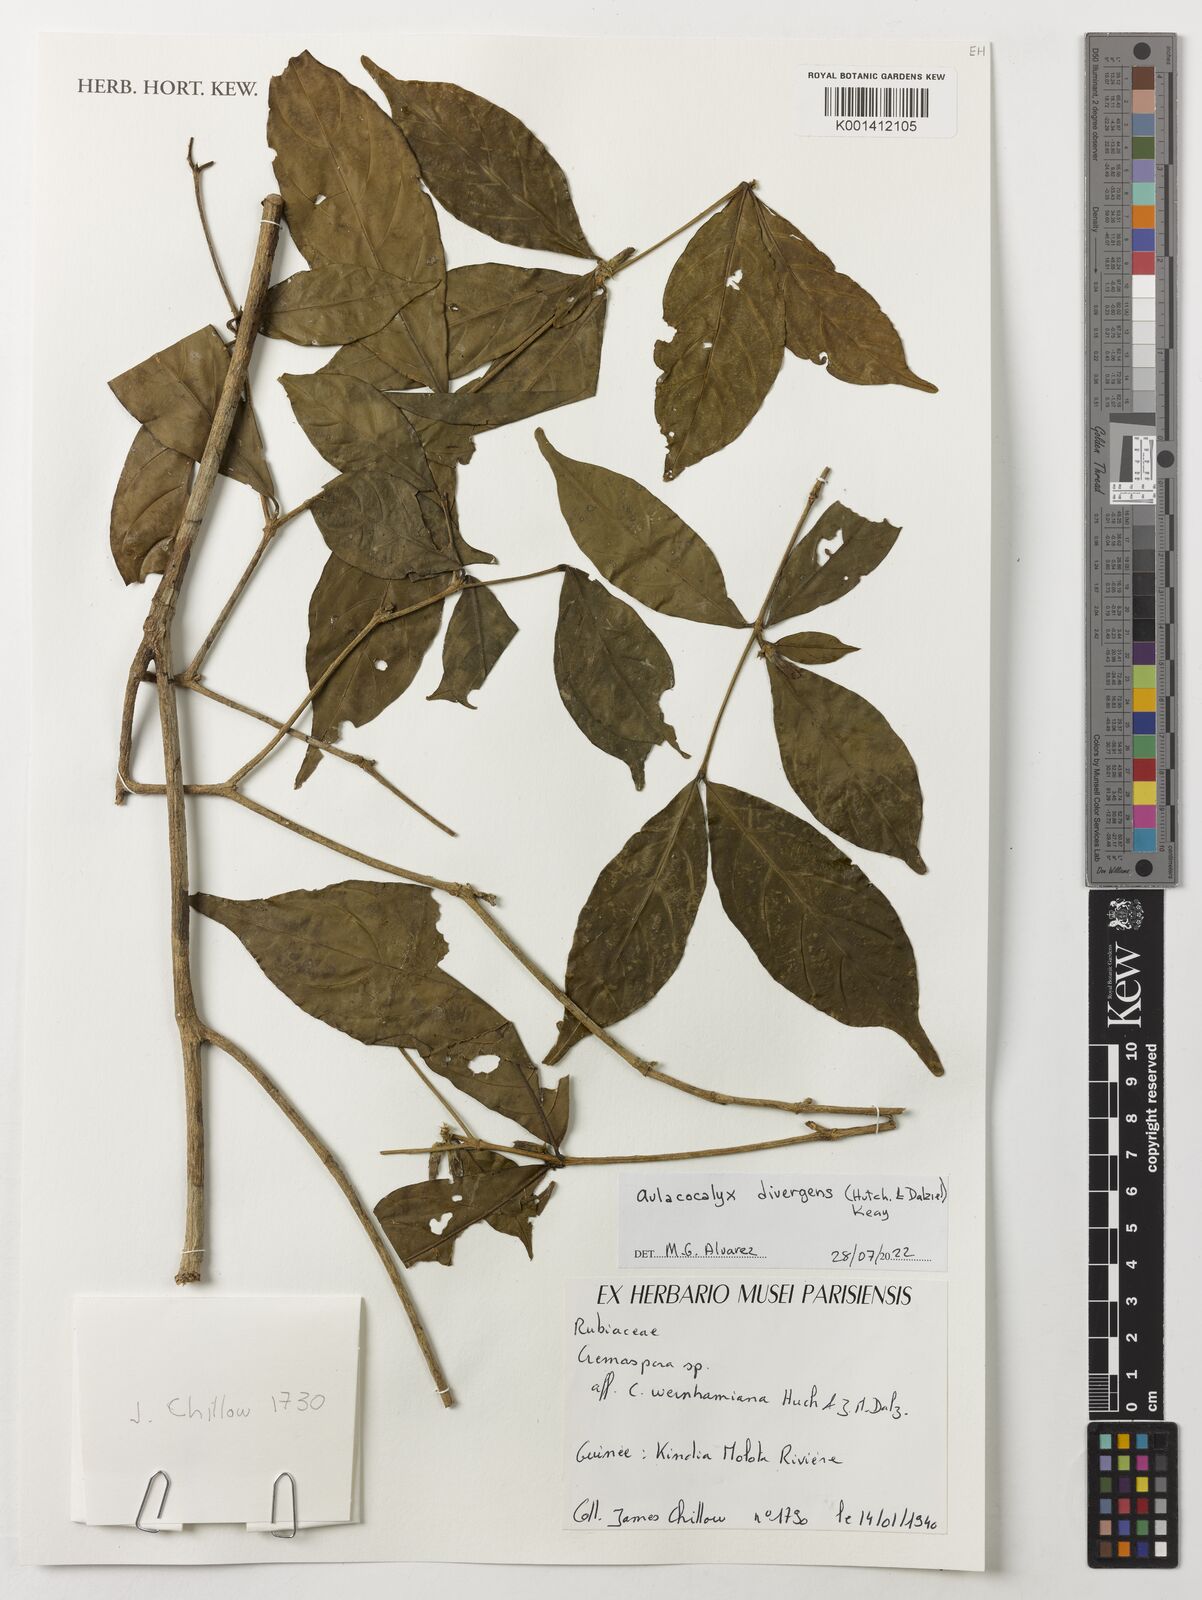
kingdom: Plantae
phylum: Tracheophyta
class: Magnoliopsida
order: Gentianales
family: Rubiaceae
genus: Aulacocalyx
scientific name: Aulacocalyx divergens
